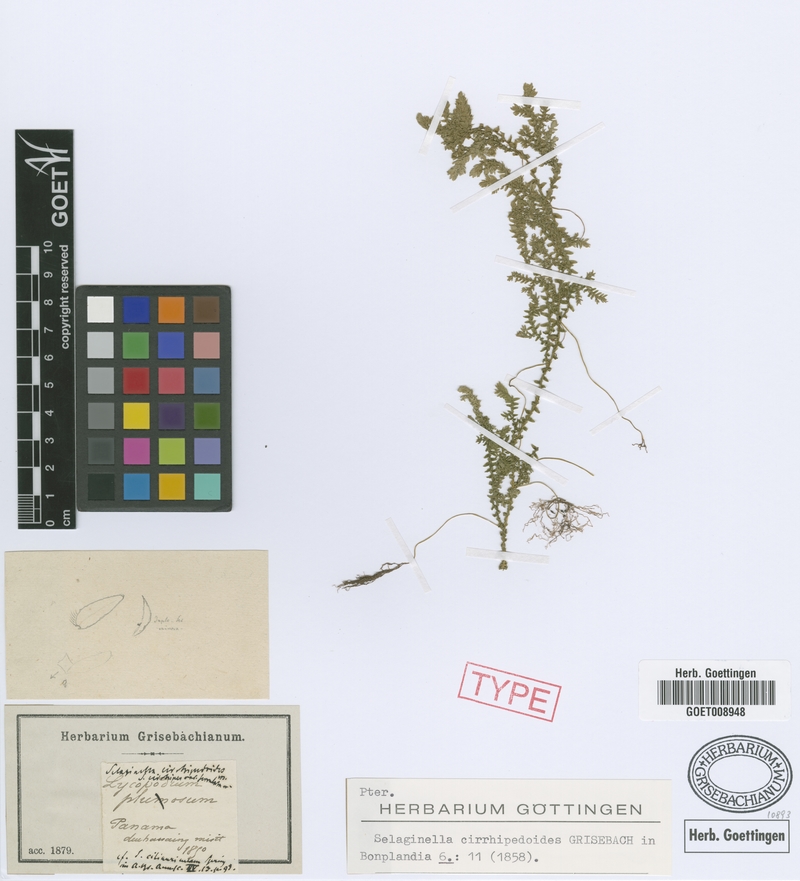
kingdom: Plantae
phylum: Tracheophyta
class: Lycopodiopsida
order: Selaginellales
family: Selaginellaceae
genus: Selaginella
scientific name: Selaginella cirrhipedoides
